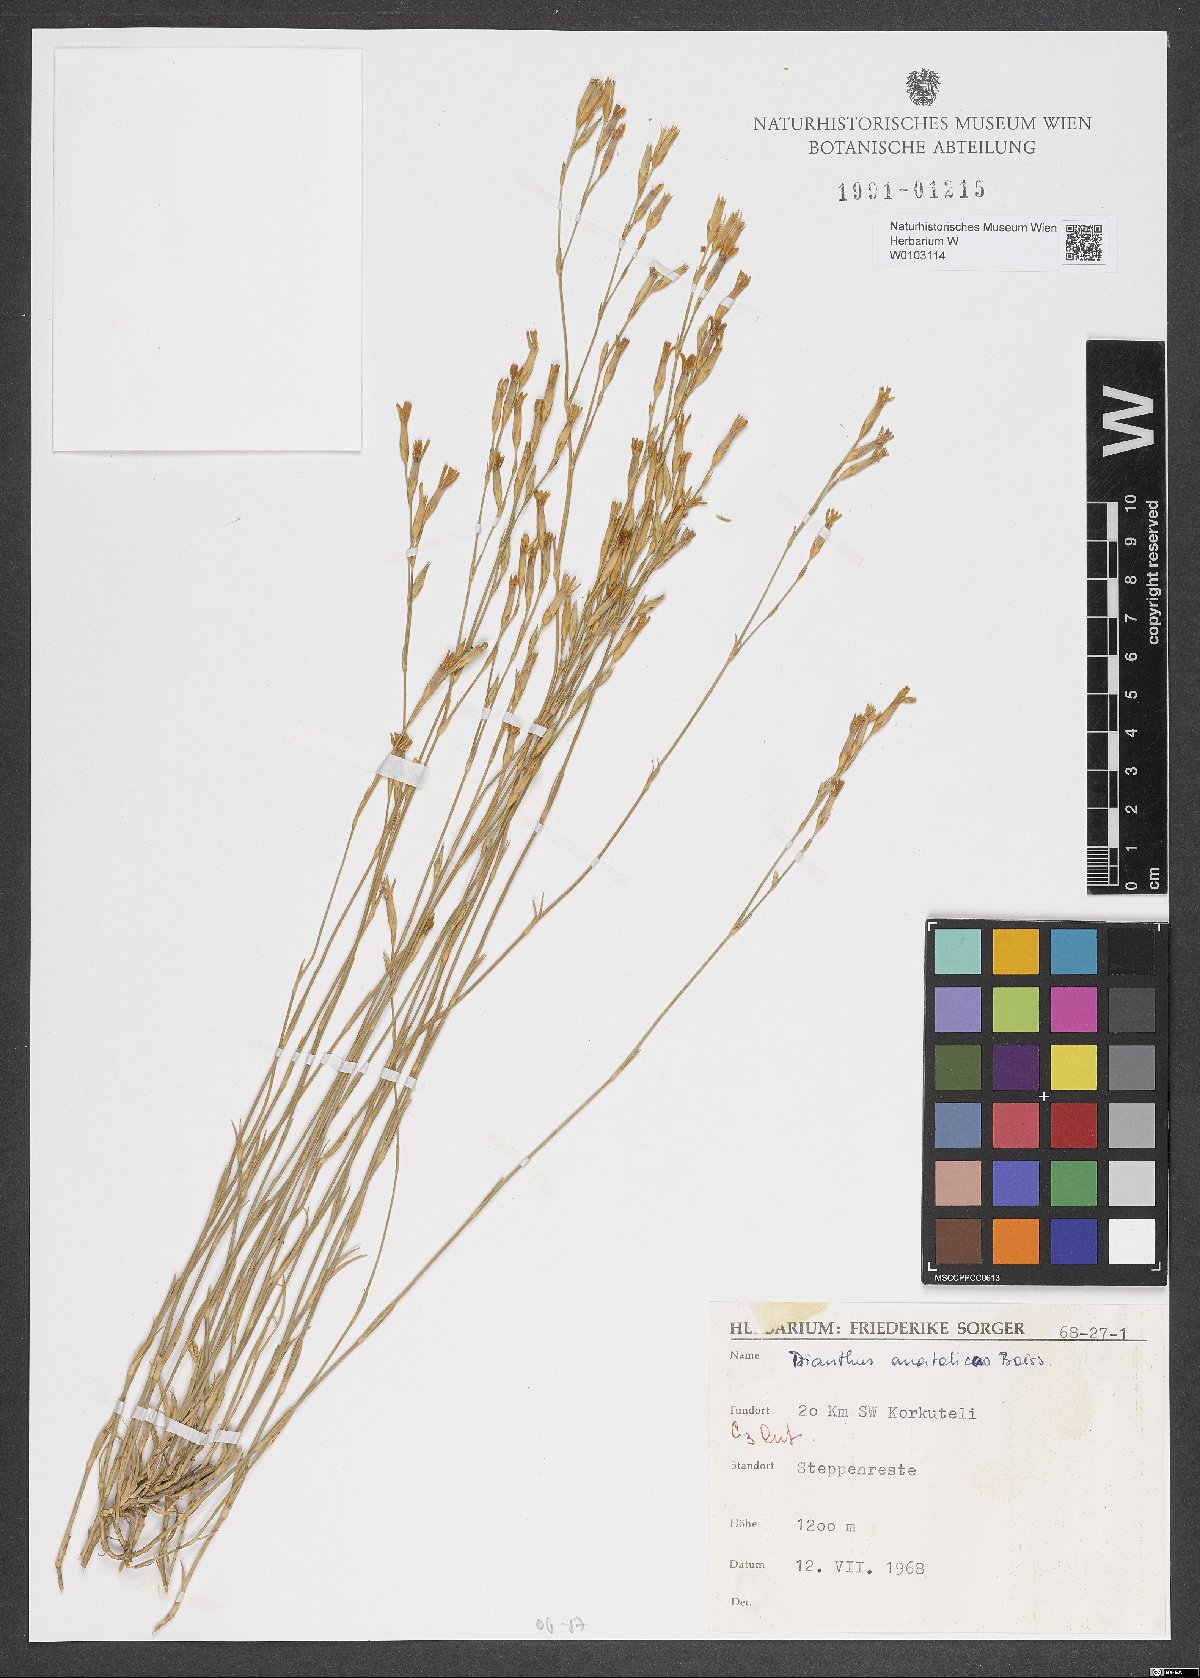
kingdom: Plantae
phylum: Tracheophyta
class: Magnoliopsida
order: Caryophyllales
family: Caryophyllaceae
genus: Dianthus
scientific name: Dianthus anatolicus
